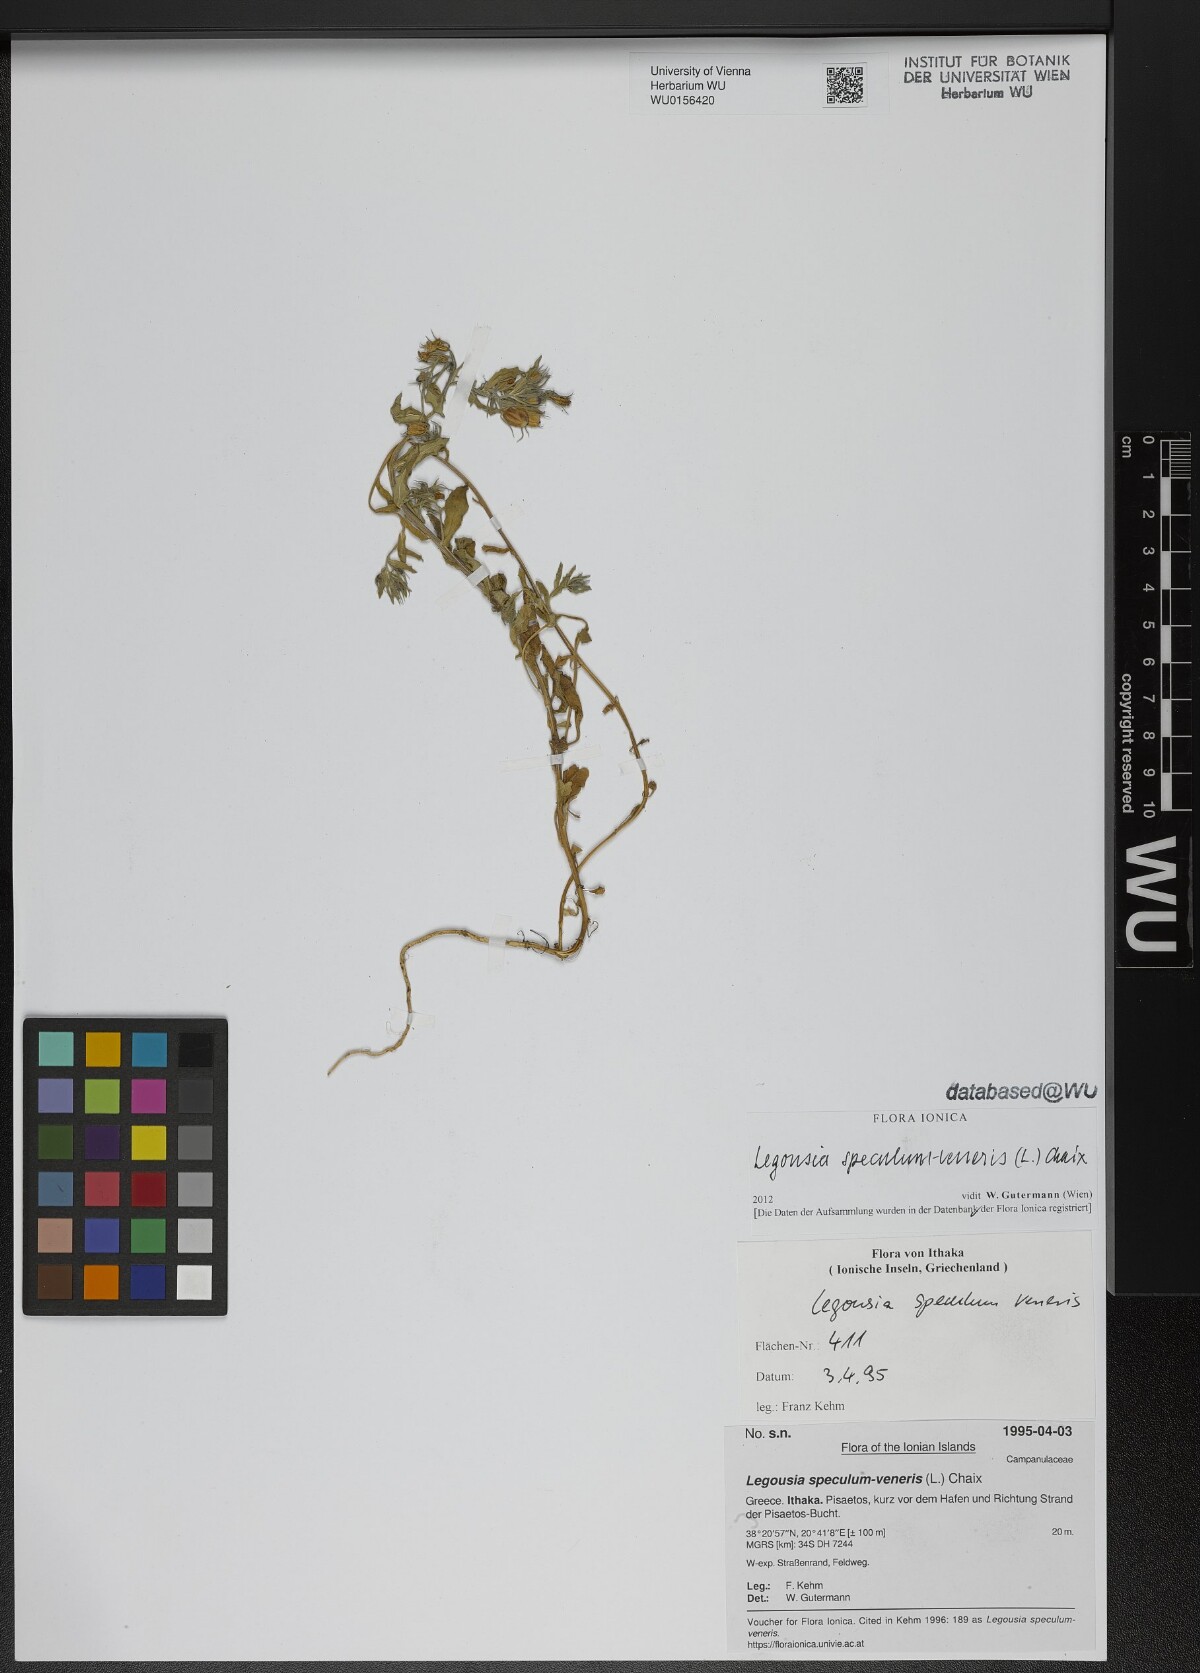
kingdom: Plantae
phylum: Tracheophyta
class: Magnoliopsida
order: Asterales
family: Campanulaceae
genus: Legousia
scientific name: Legousia speculum-veneris
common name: Large venus's-looking-glass
